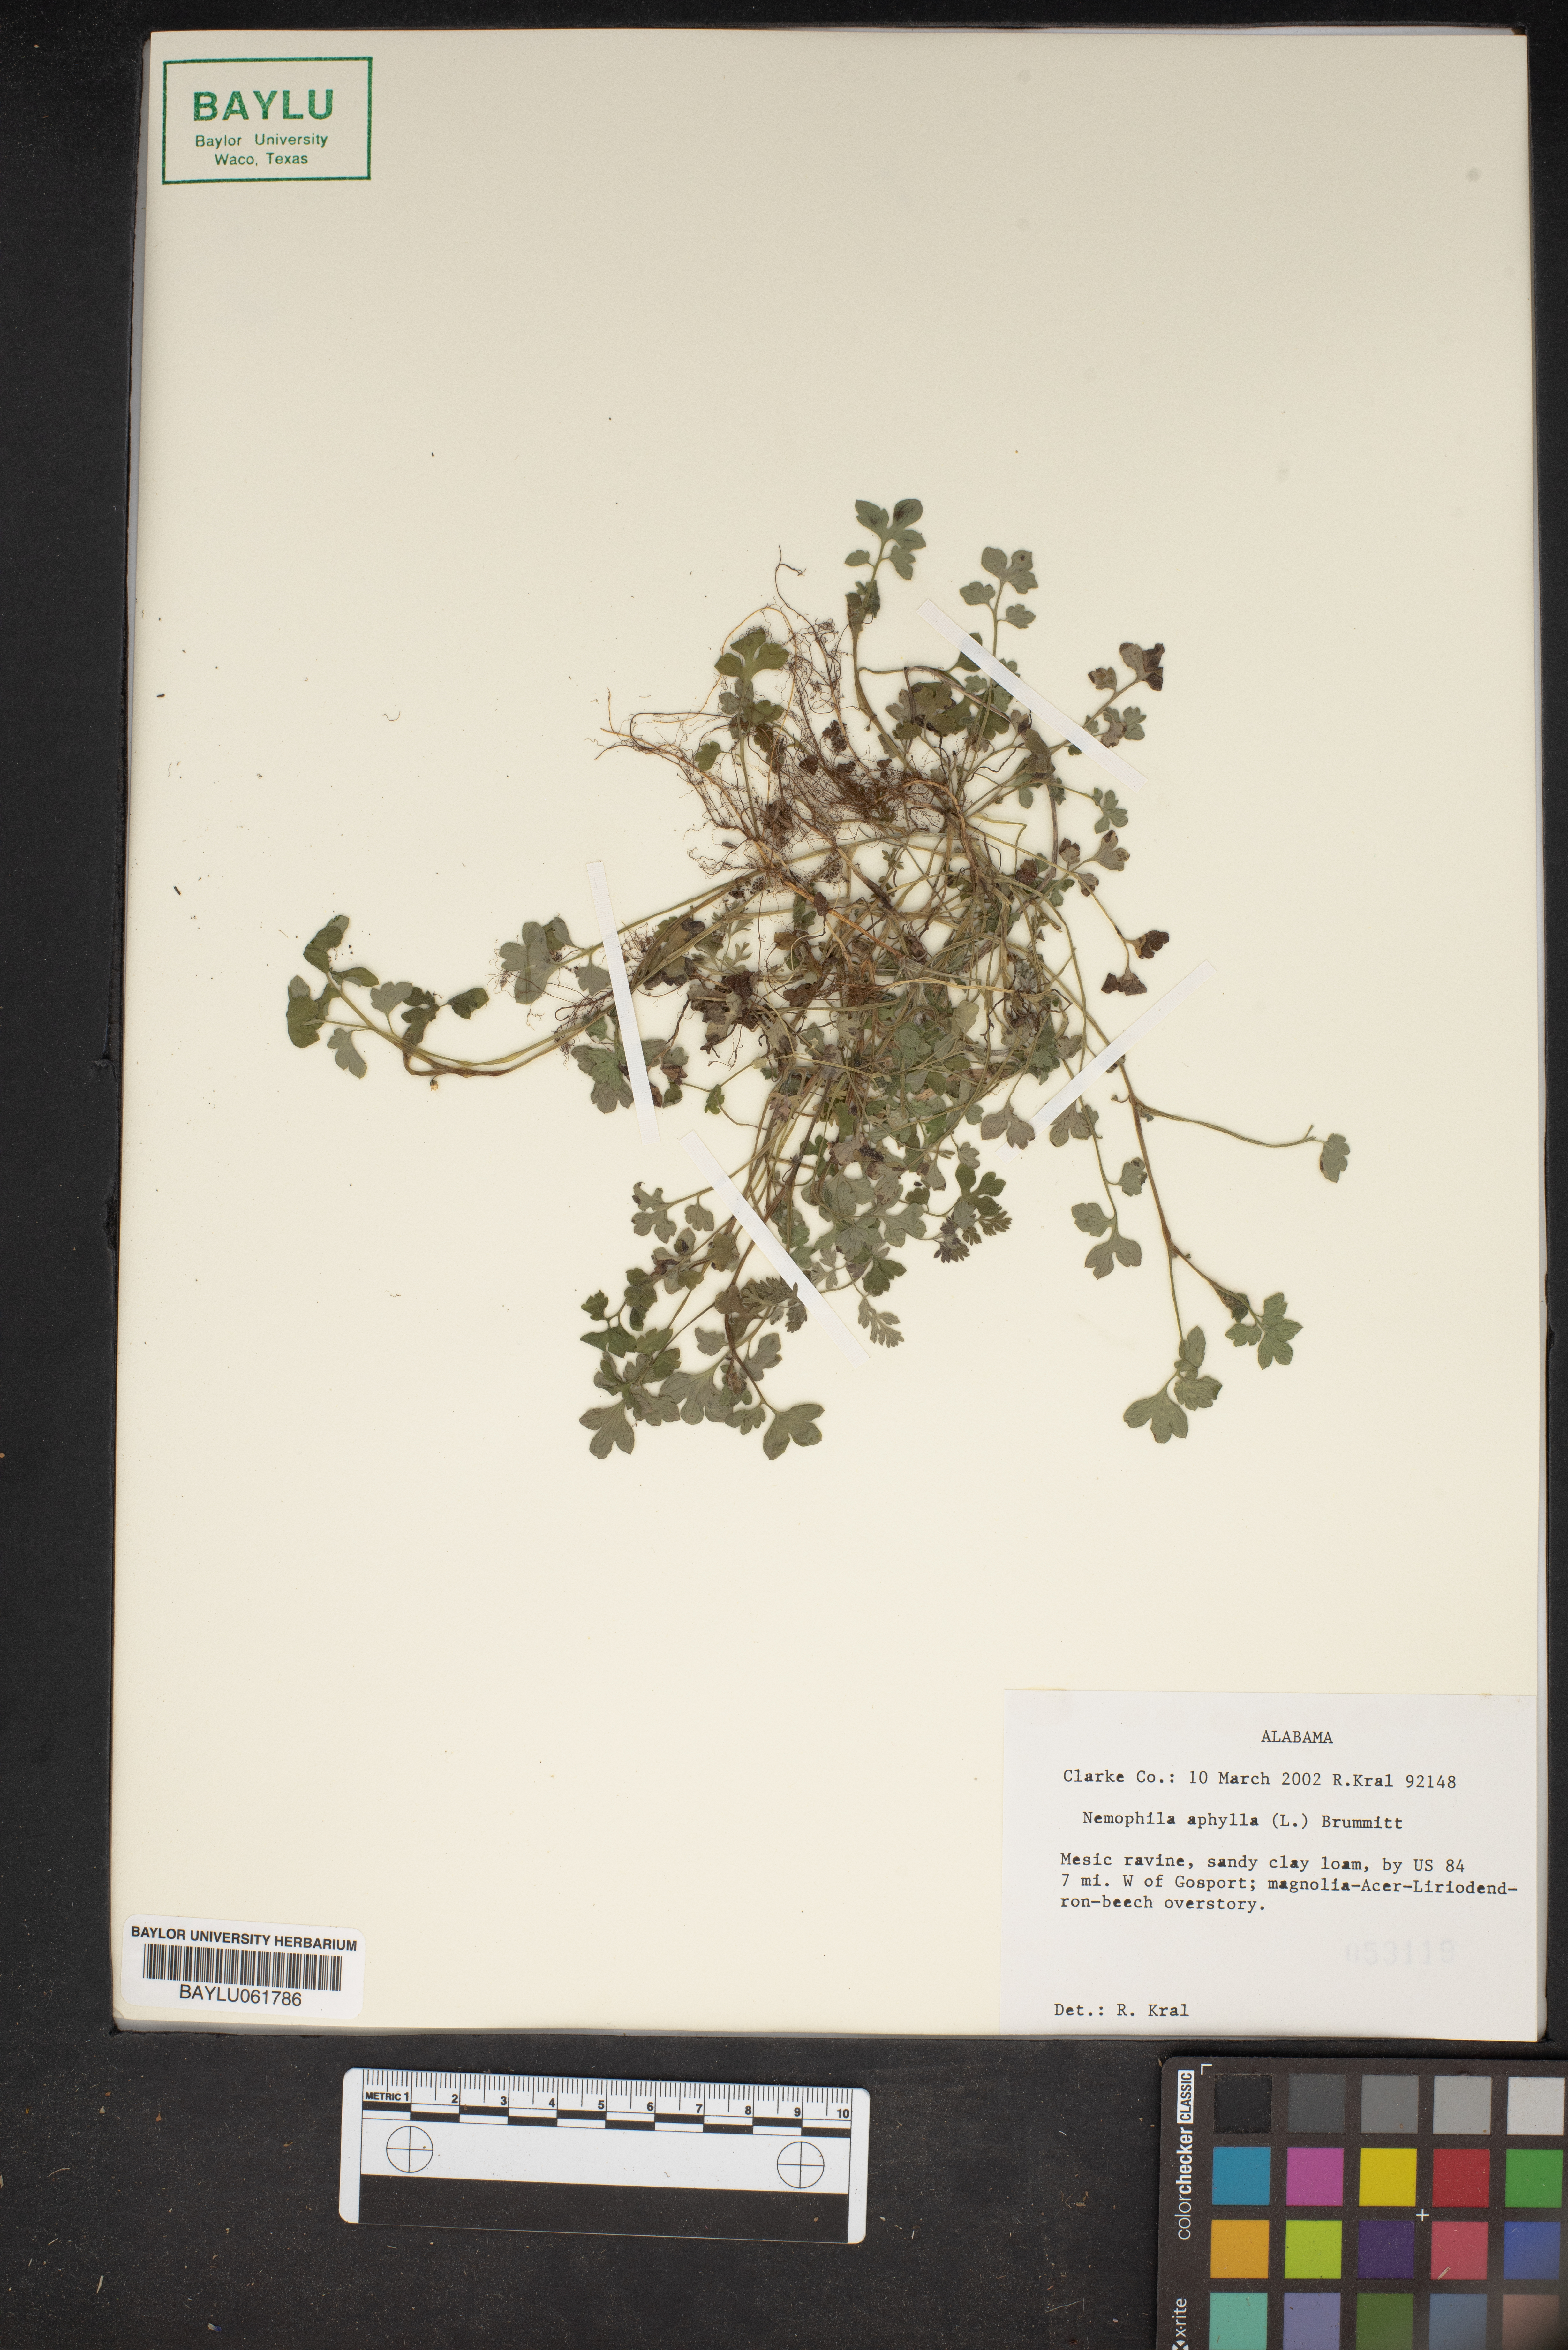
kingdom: Plantae
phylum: Tracheophyta
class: Magnoliopsida
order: Boraginales
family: Hydrophyllaceae
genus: Nemophila
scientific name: Nemophila aphylla
